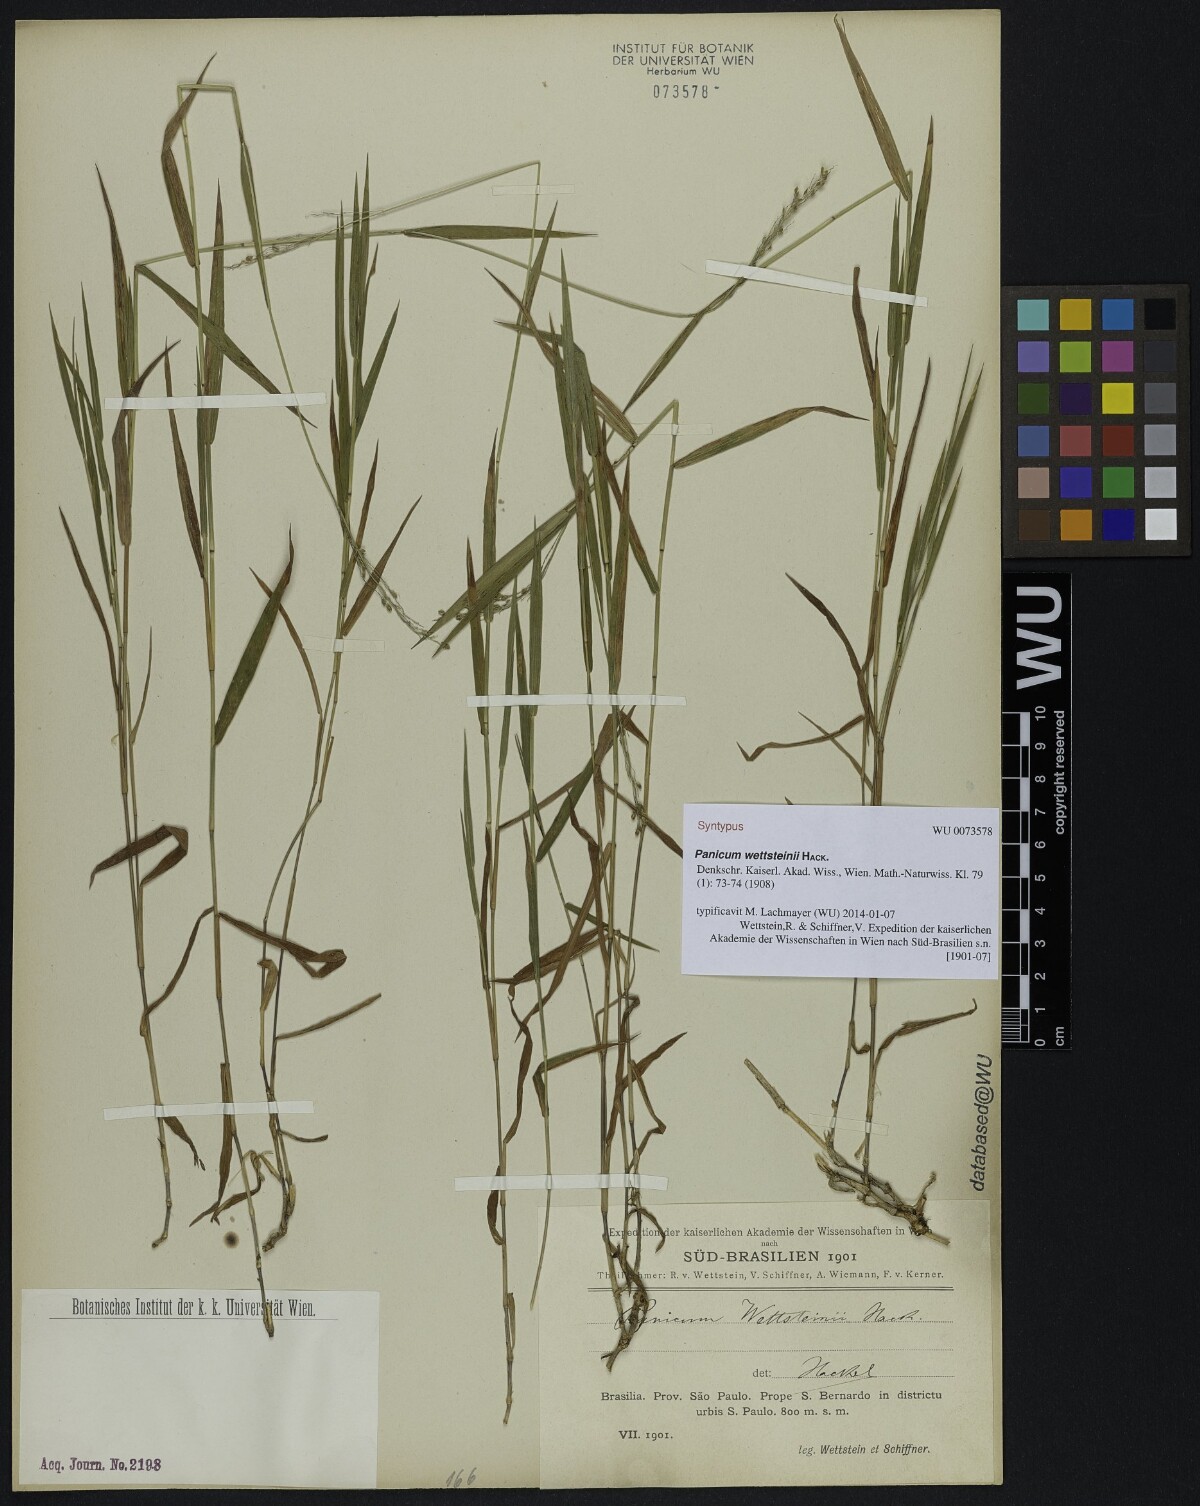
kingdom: Plantae
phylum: Tracheophyta
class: Liliopsida
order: Poales
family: Poaceae
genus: Trichanthecium
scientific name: Trichanthecium wettsteinii
